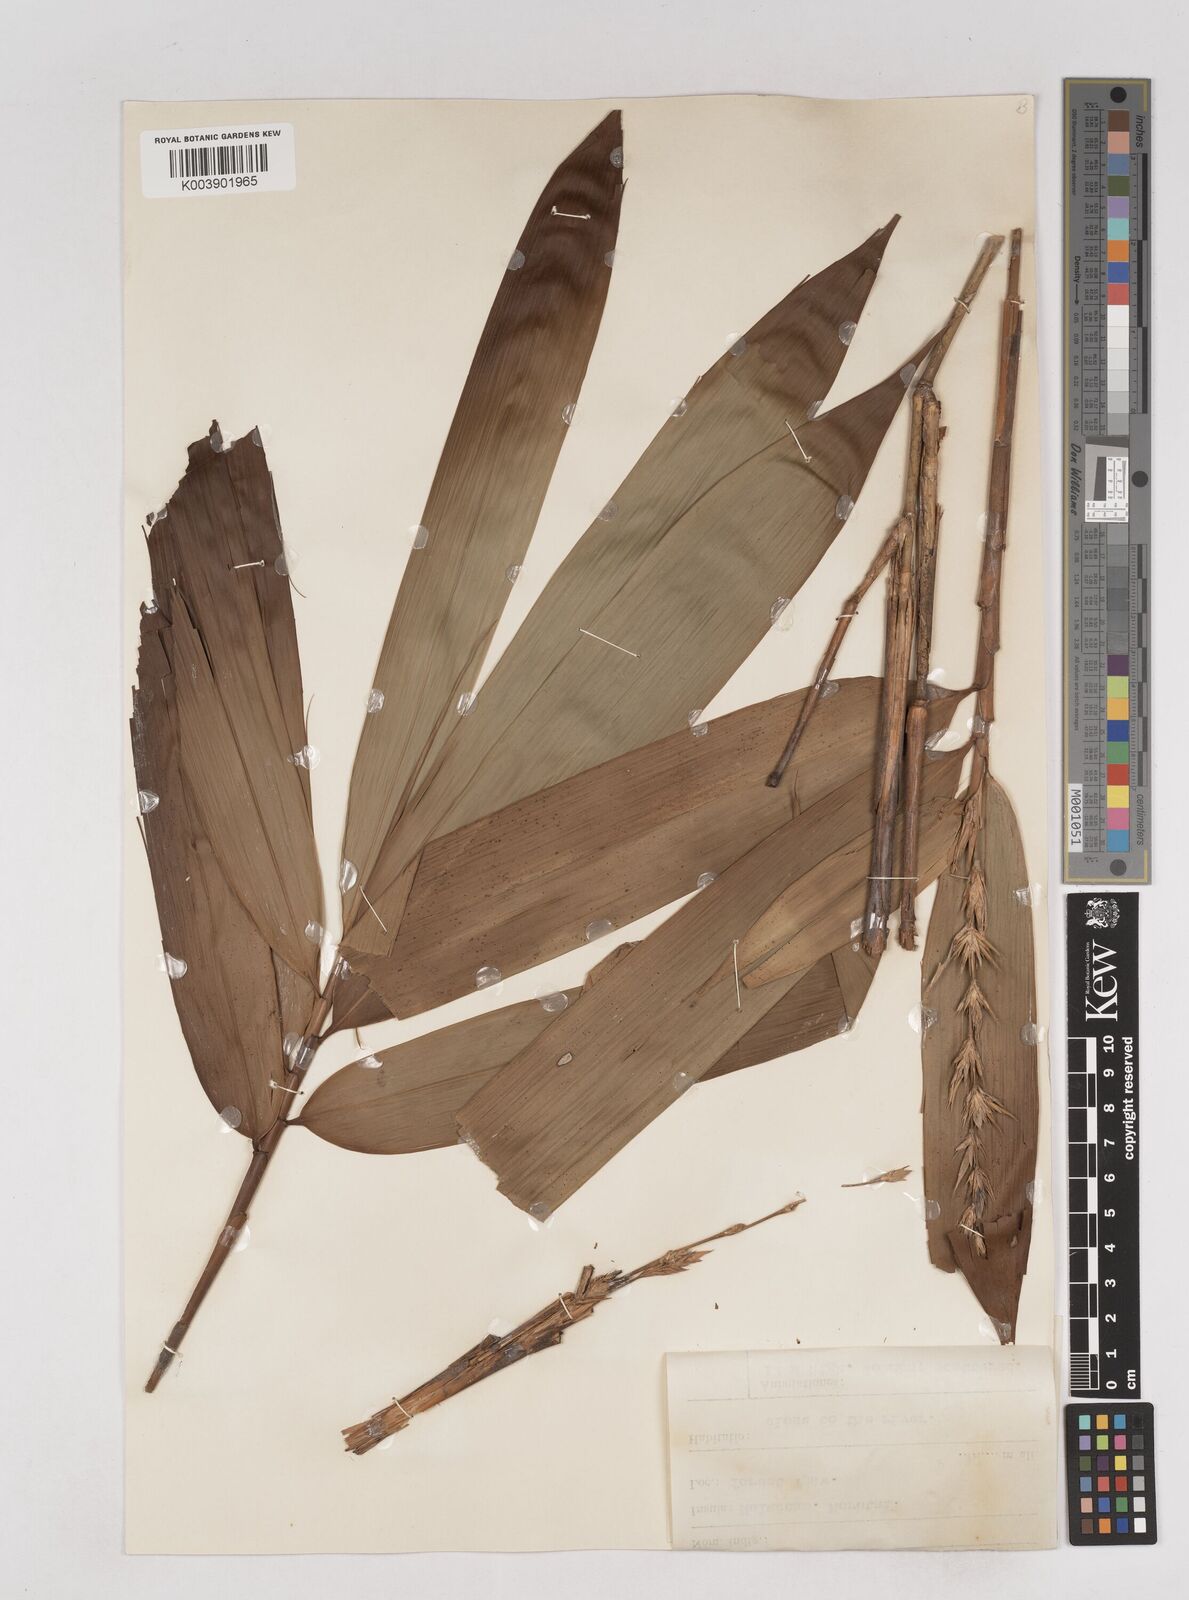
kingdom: Plantae
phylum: Tracheophyta
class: Liliopsida
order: Poales
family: Poaceae
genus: Schizostachyum
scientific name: Schizostachyum brachycladum
